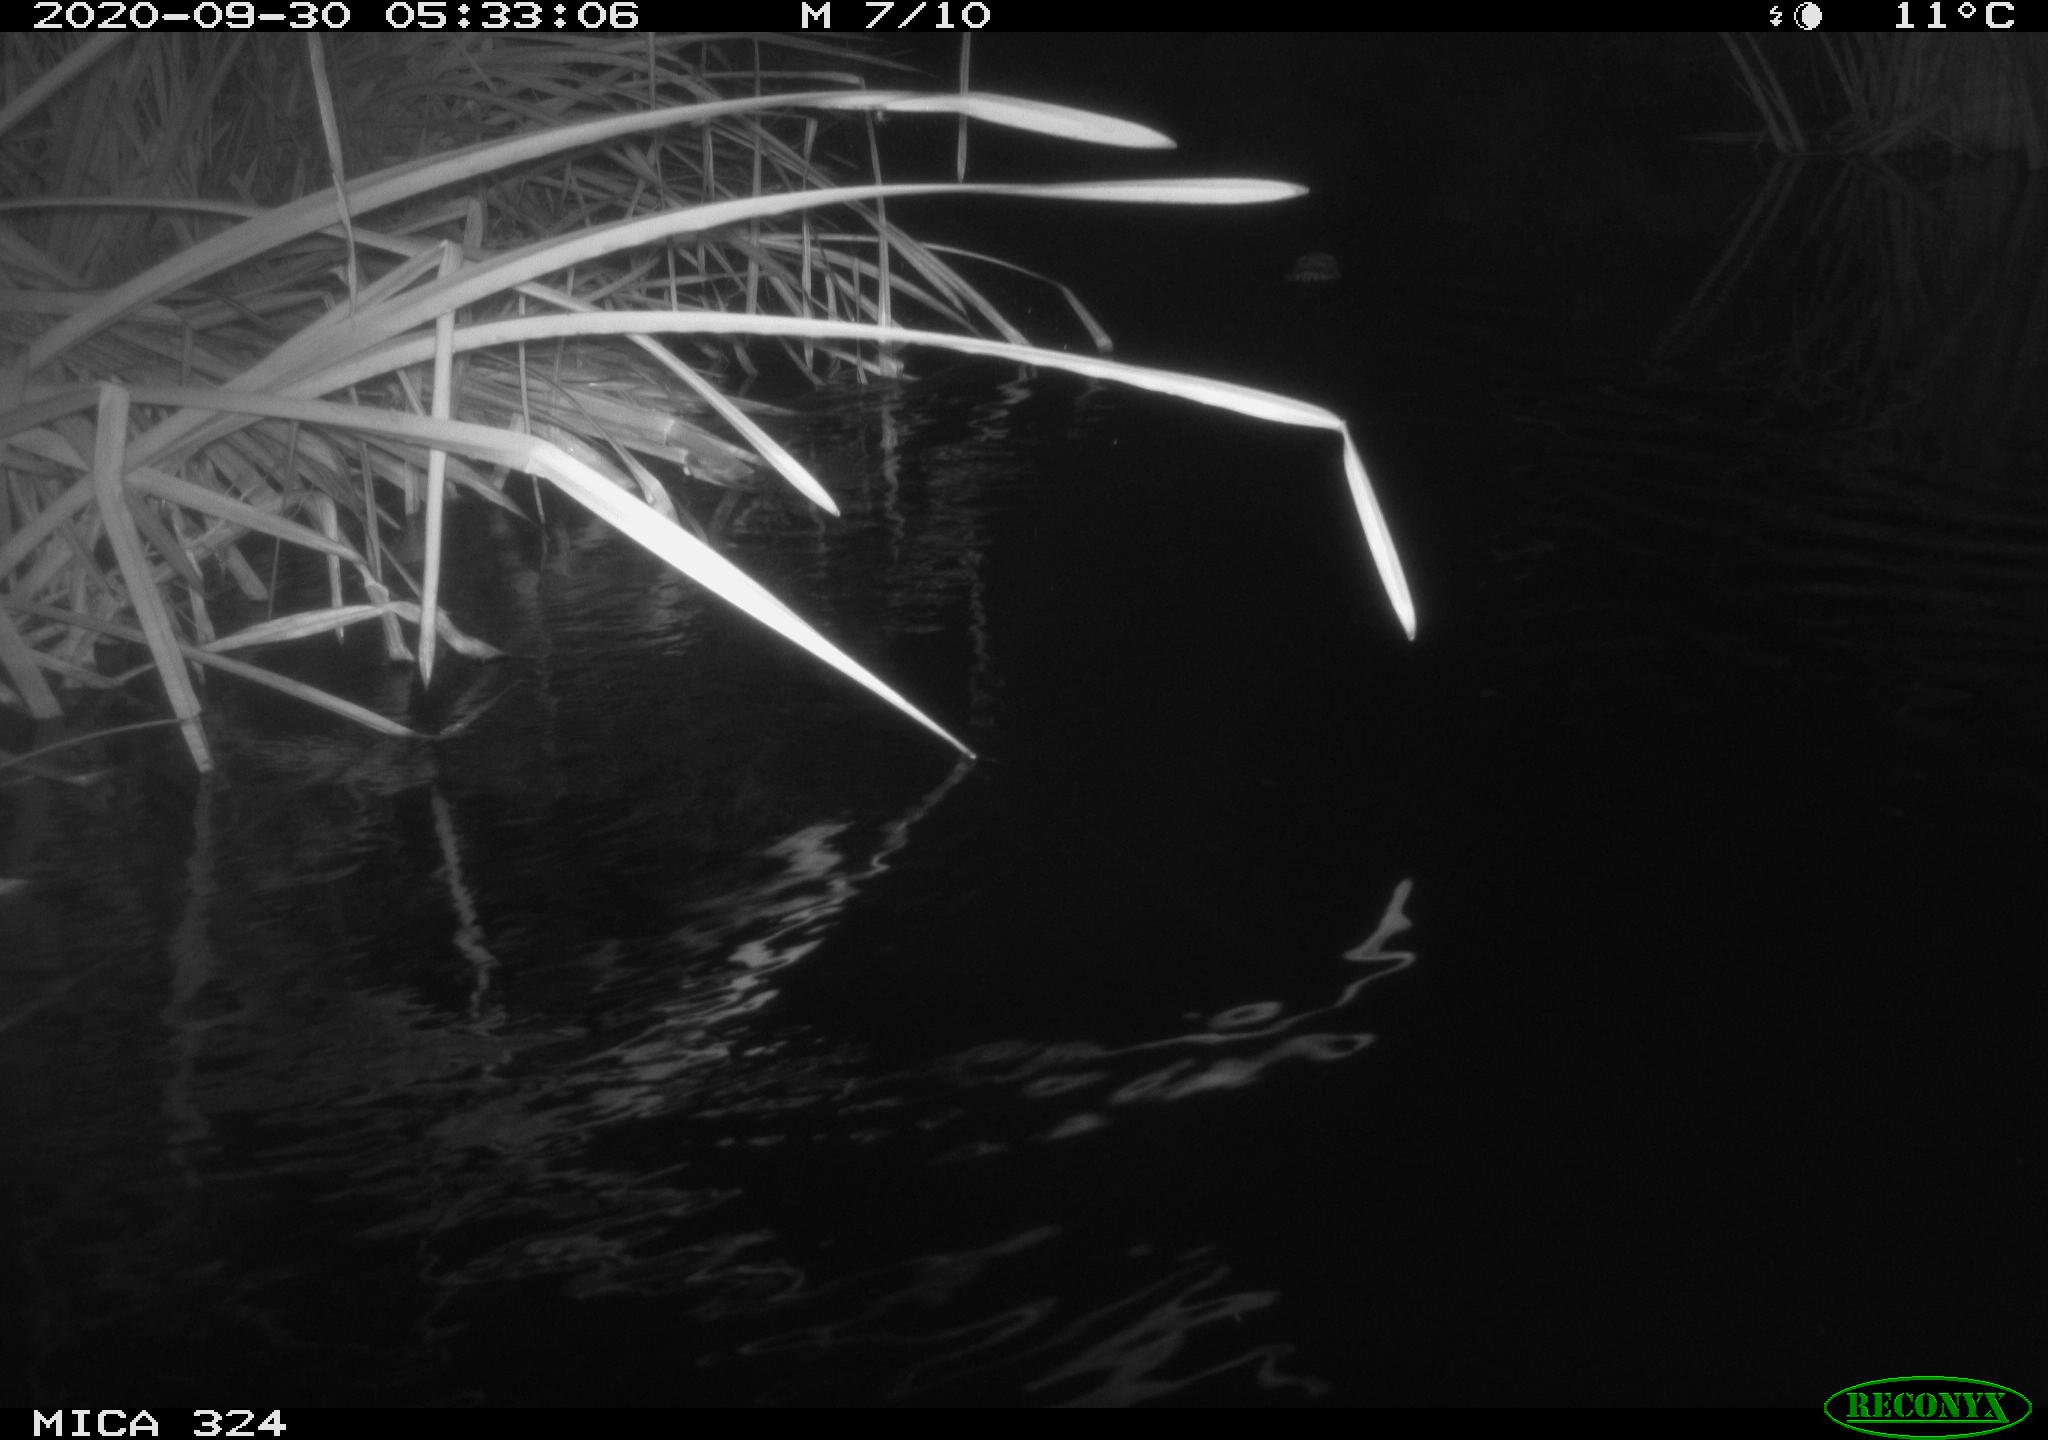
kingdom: Animalia
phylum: Chordata
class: Mammalia
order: Rodentia
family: Cricetidae
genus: Ondatra
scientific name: Ondatra zibethicus
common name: Muskrat
